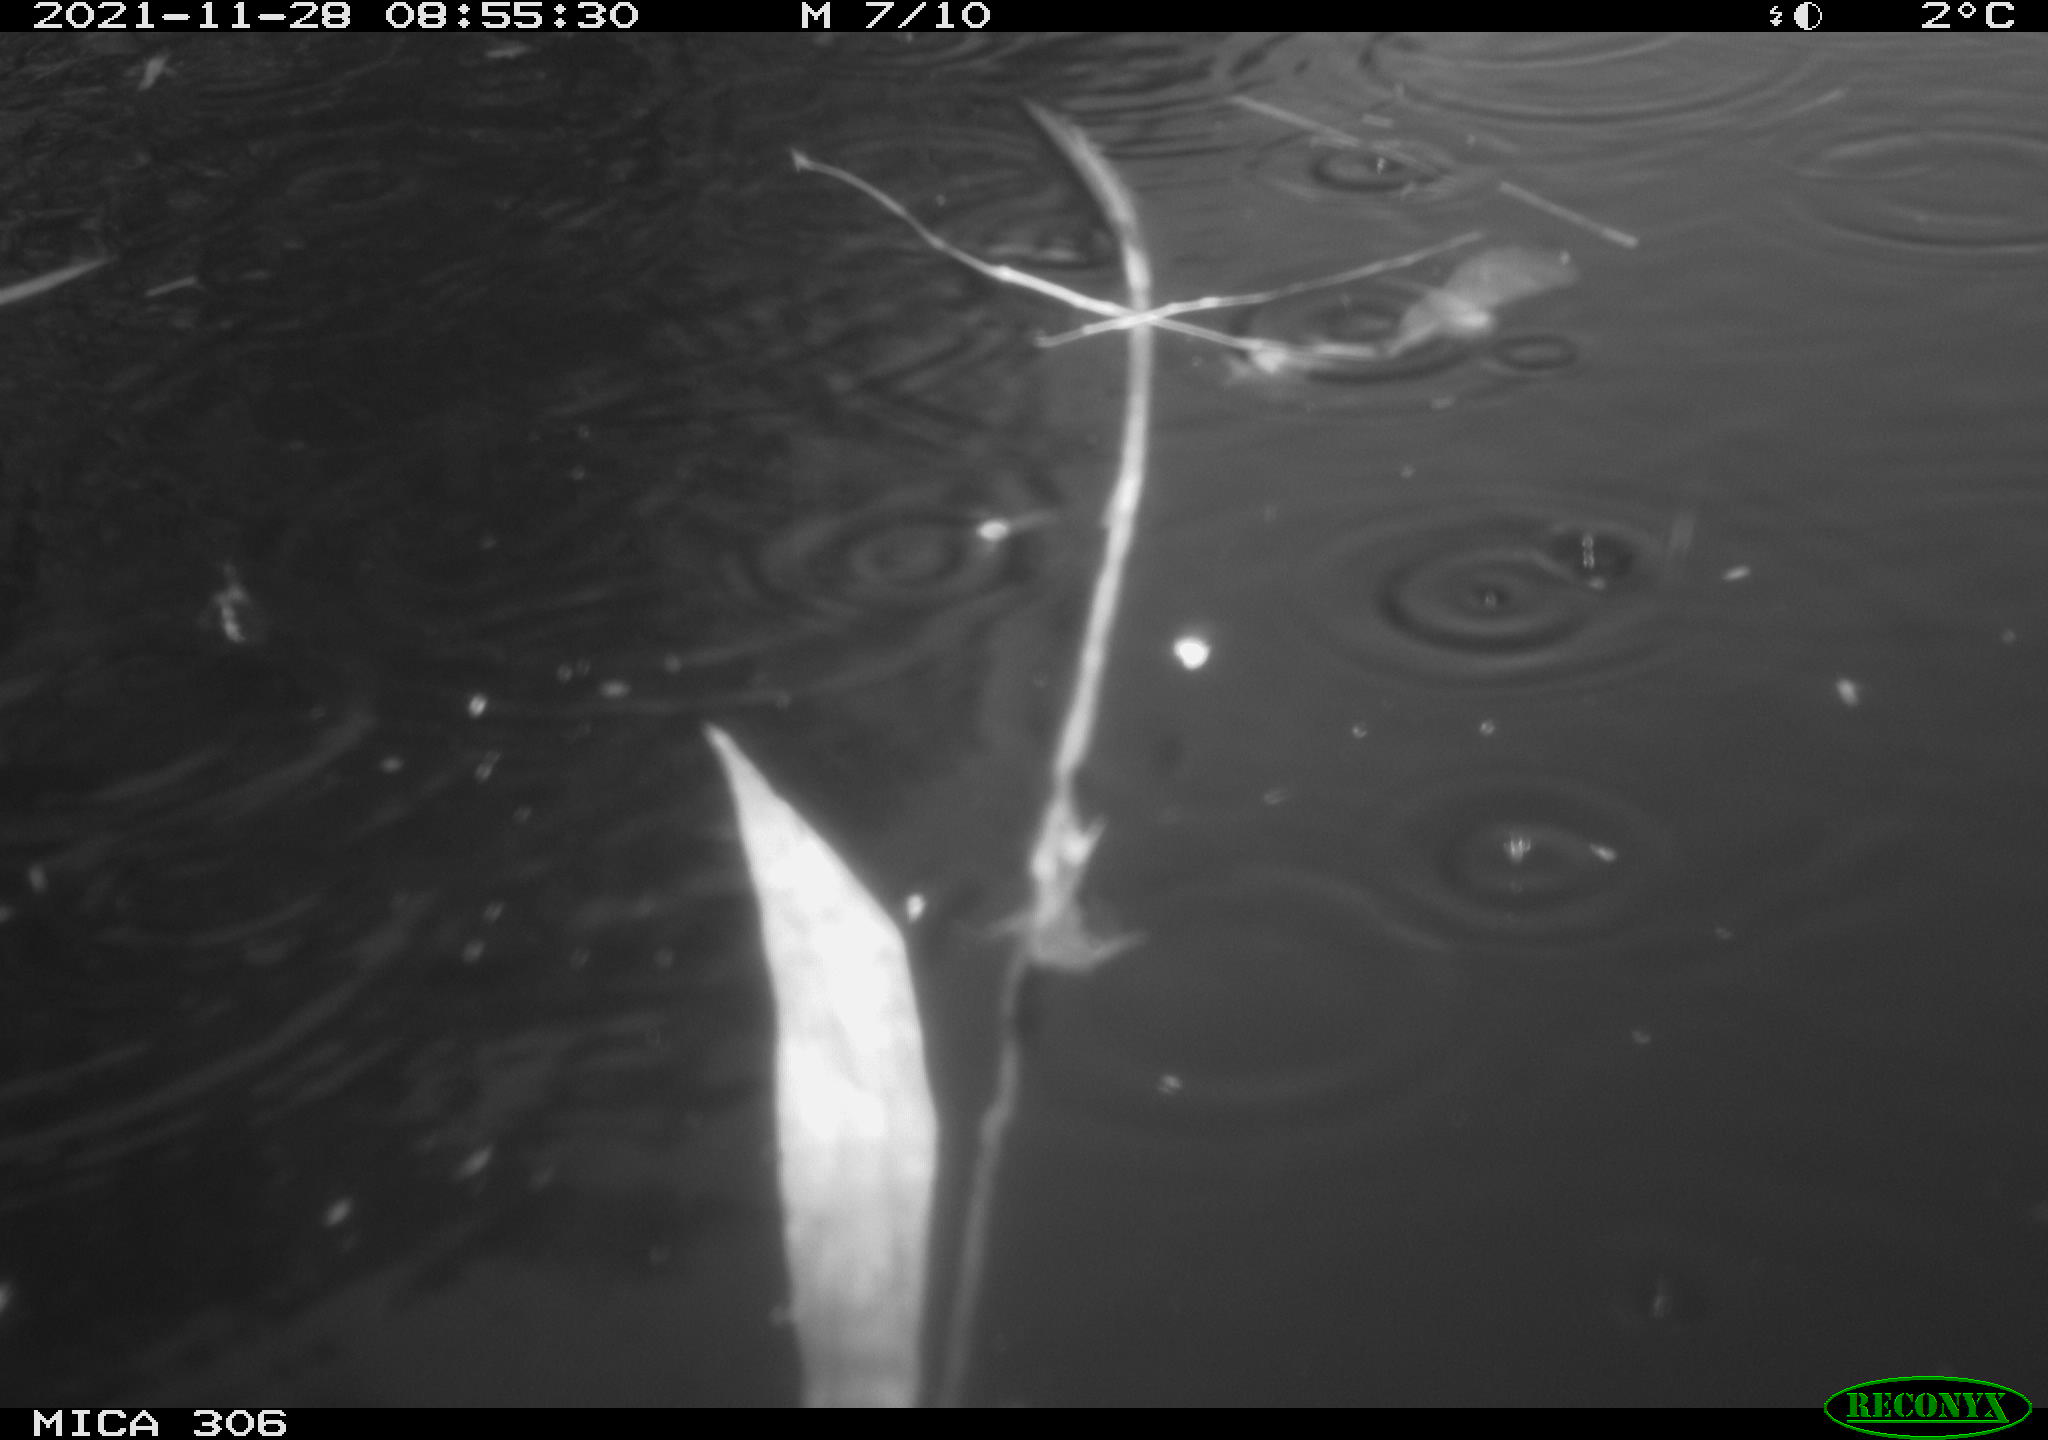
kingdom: Animalia
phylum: Chordata
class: Aves
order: Gruiformes
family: Rallidae
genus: Fulica
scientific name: Fulica atra
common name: Eurasian coot
